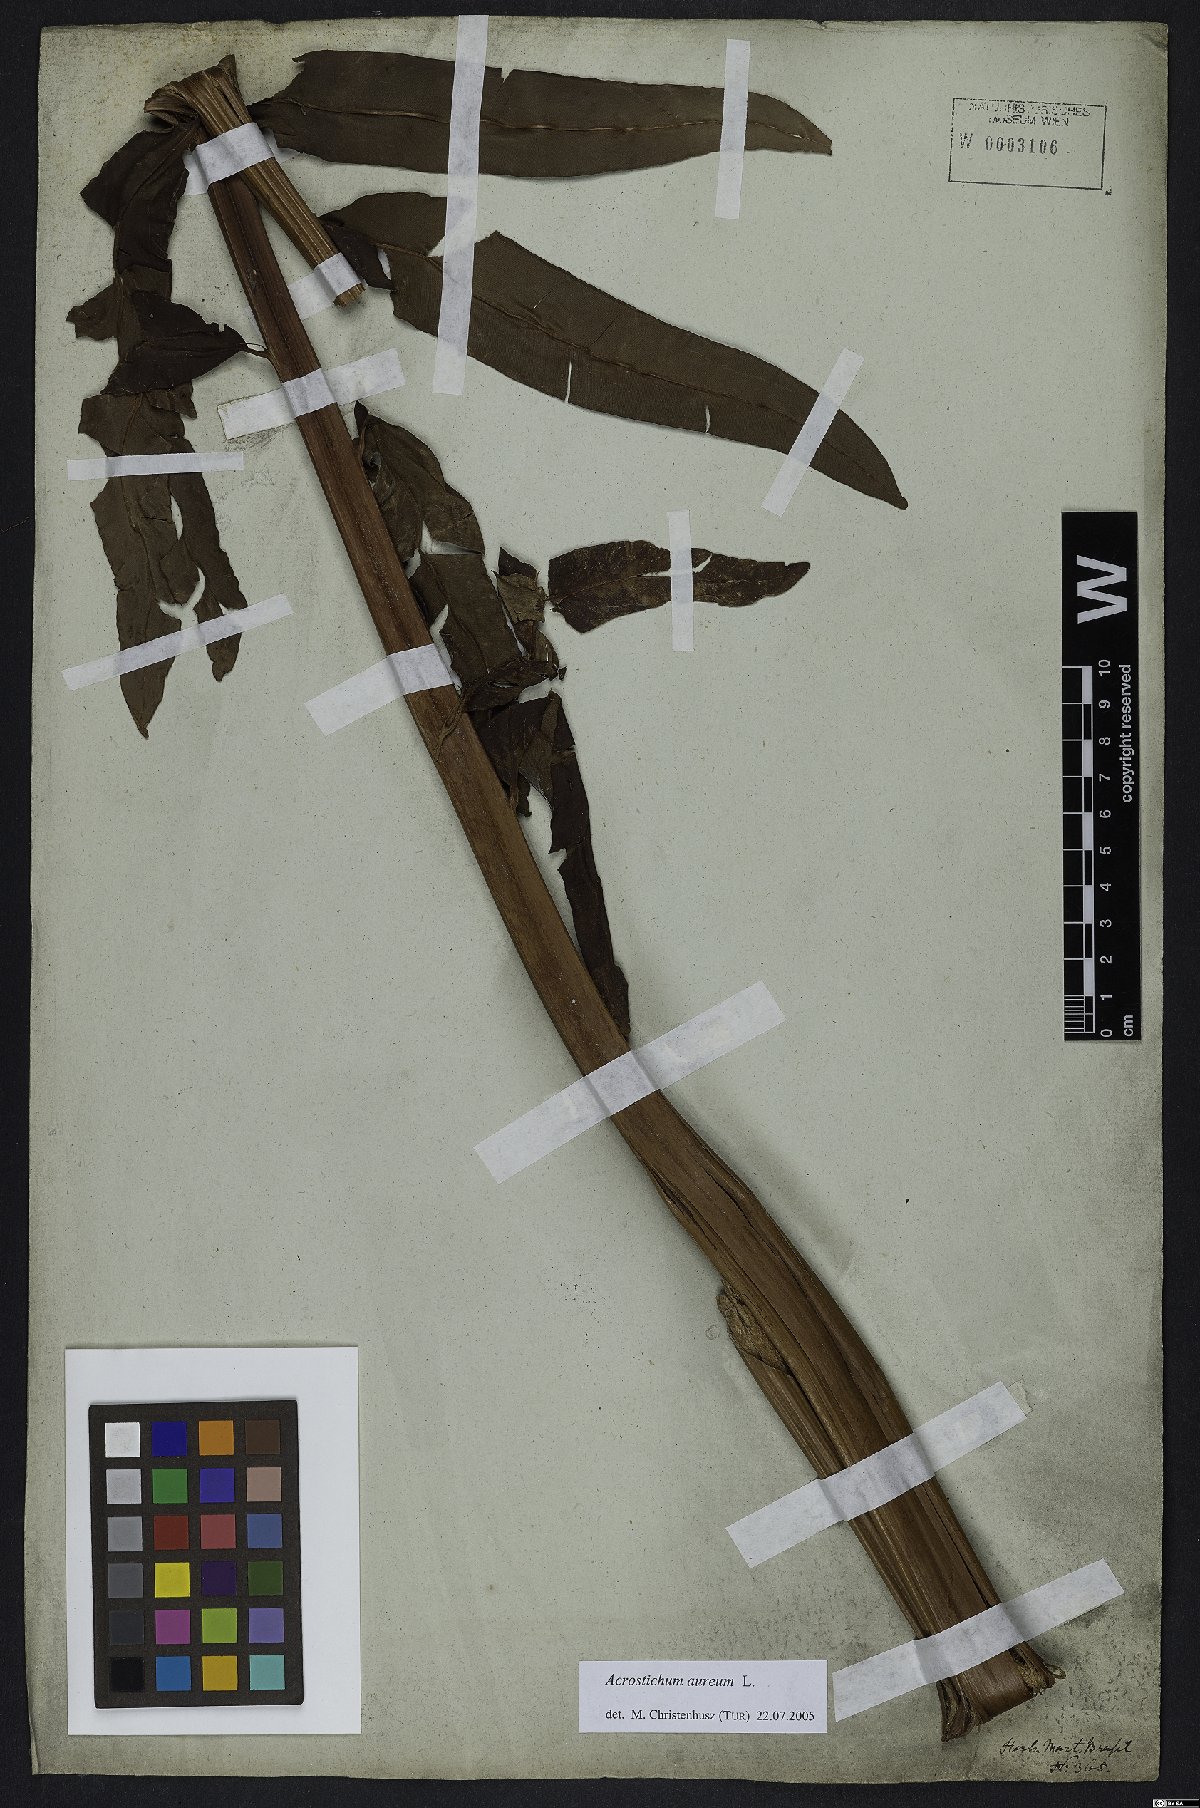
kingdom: Plantae
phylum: Tracheophyta
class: Polypodiopsida
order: Polypodiales
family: Pteridaceae
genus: Acrostichum
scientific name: Acrostichum aureum
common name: Leather fern
